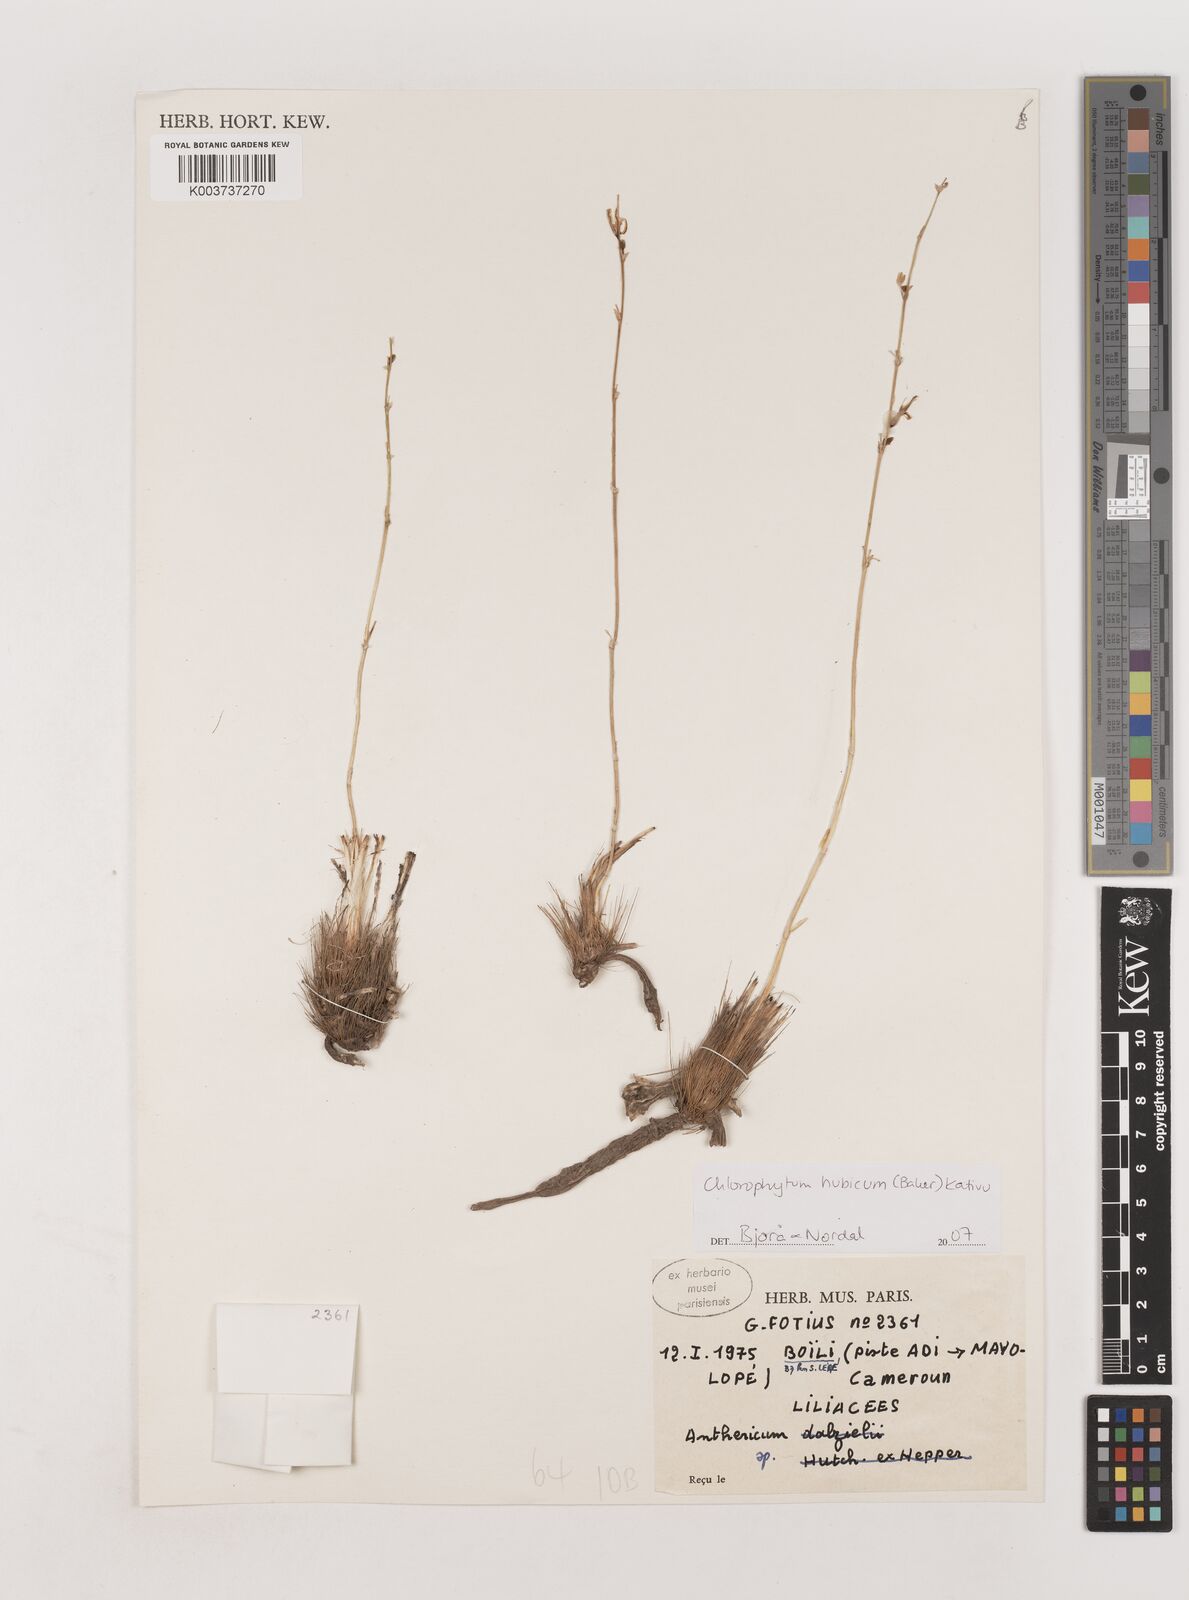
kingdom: Plantae
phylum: Tracheophyta
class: Liliopsida
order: Asparagales
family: Asparagaceae
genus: Chlorophytum
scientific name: Chlorophytum nubicum
